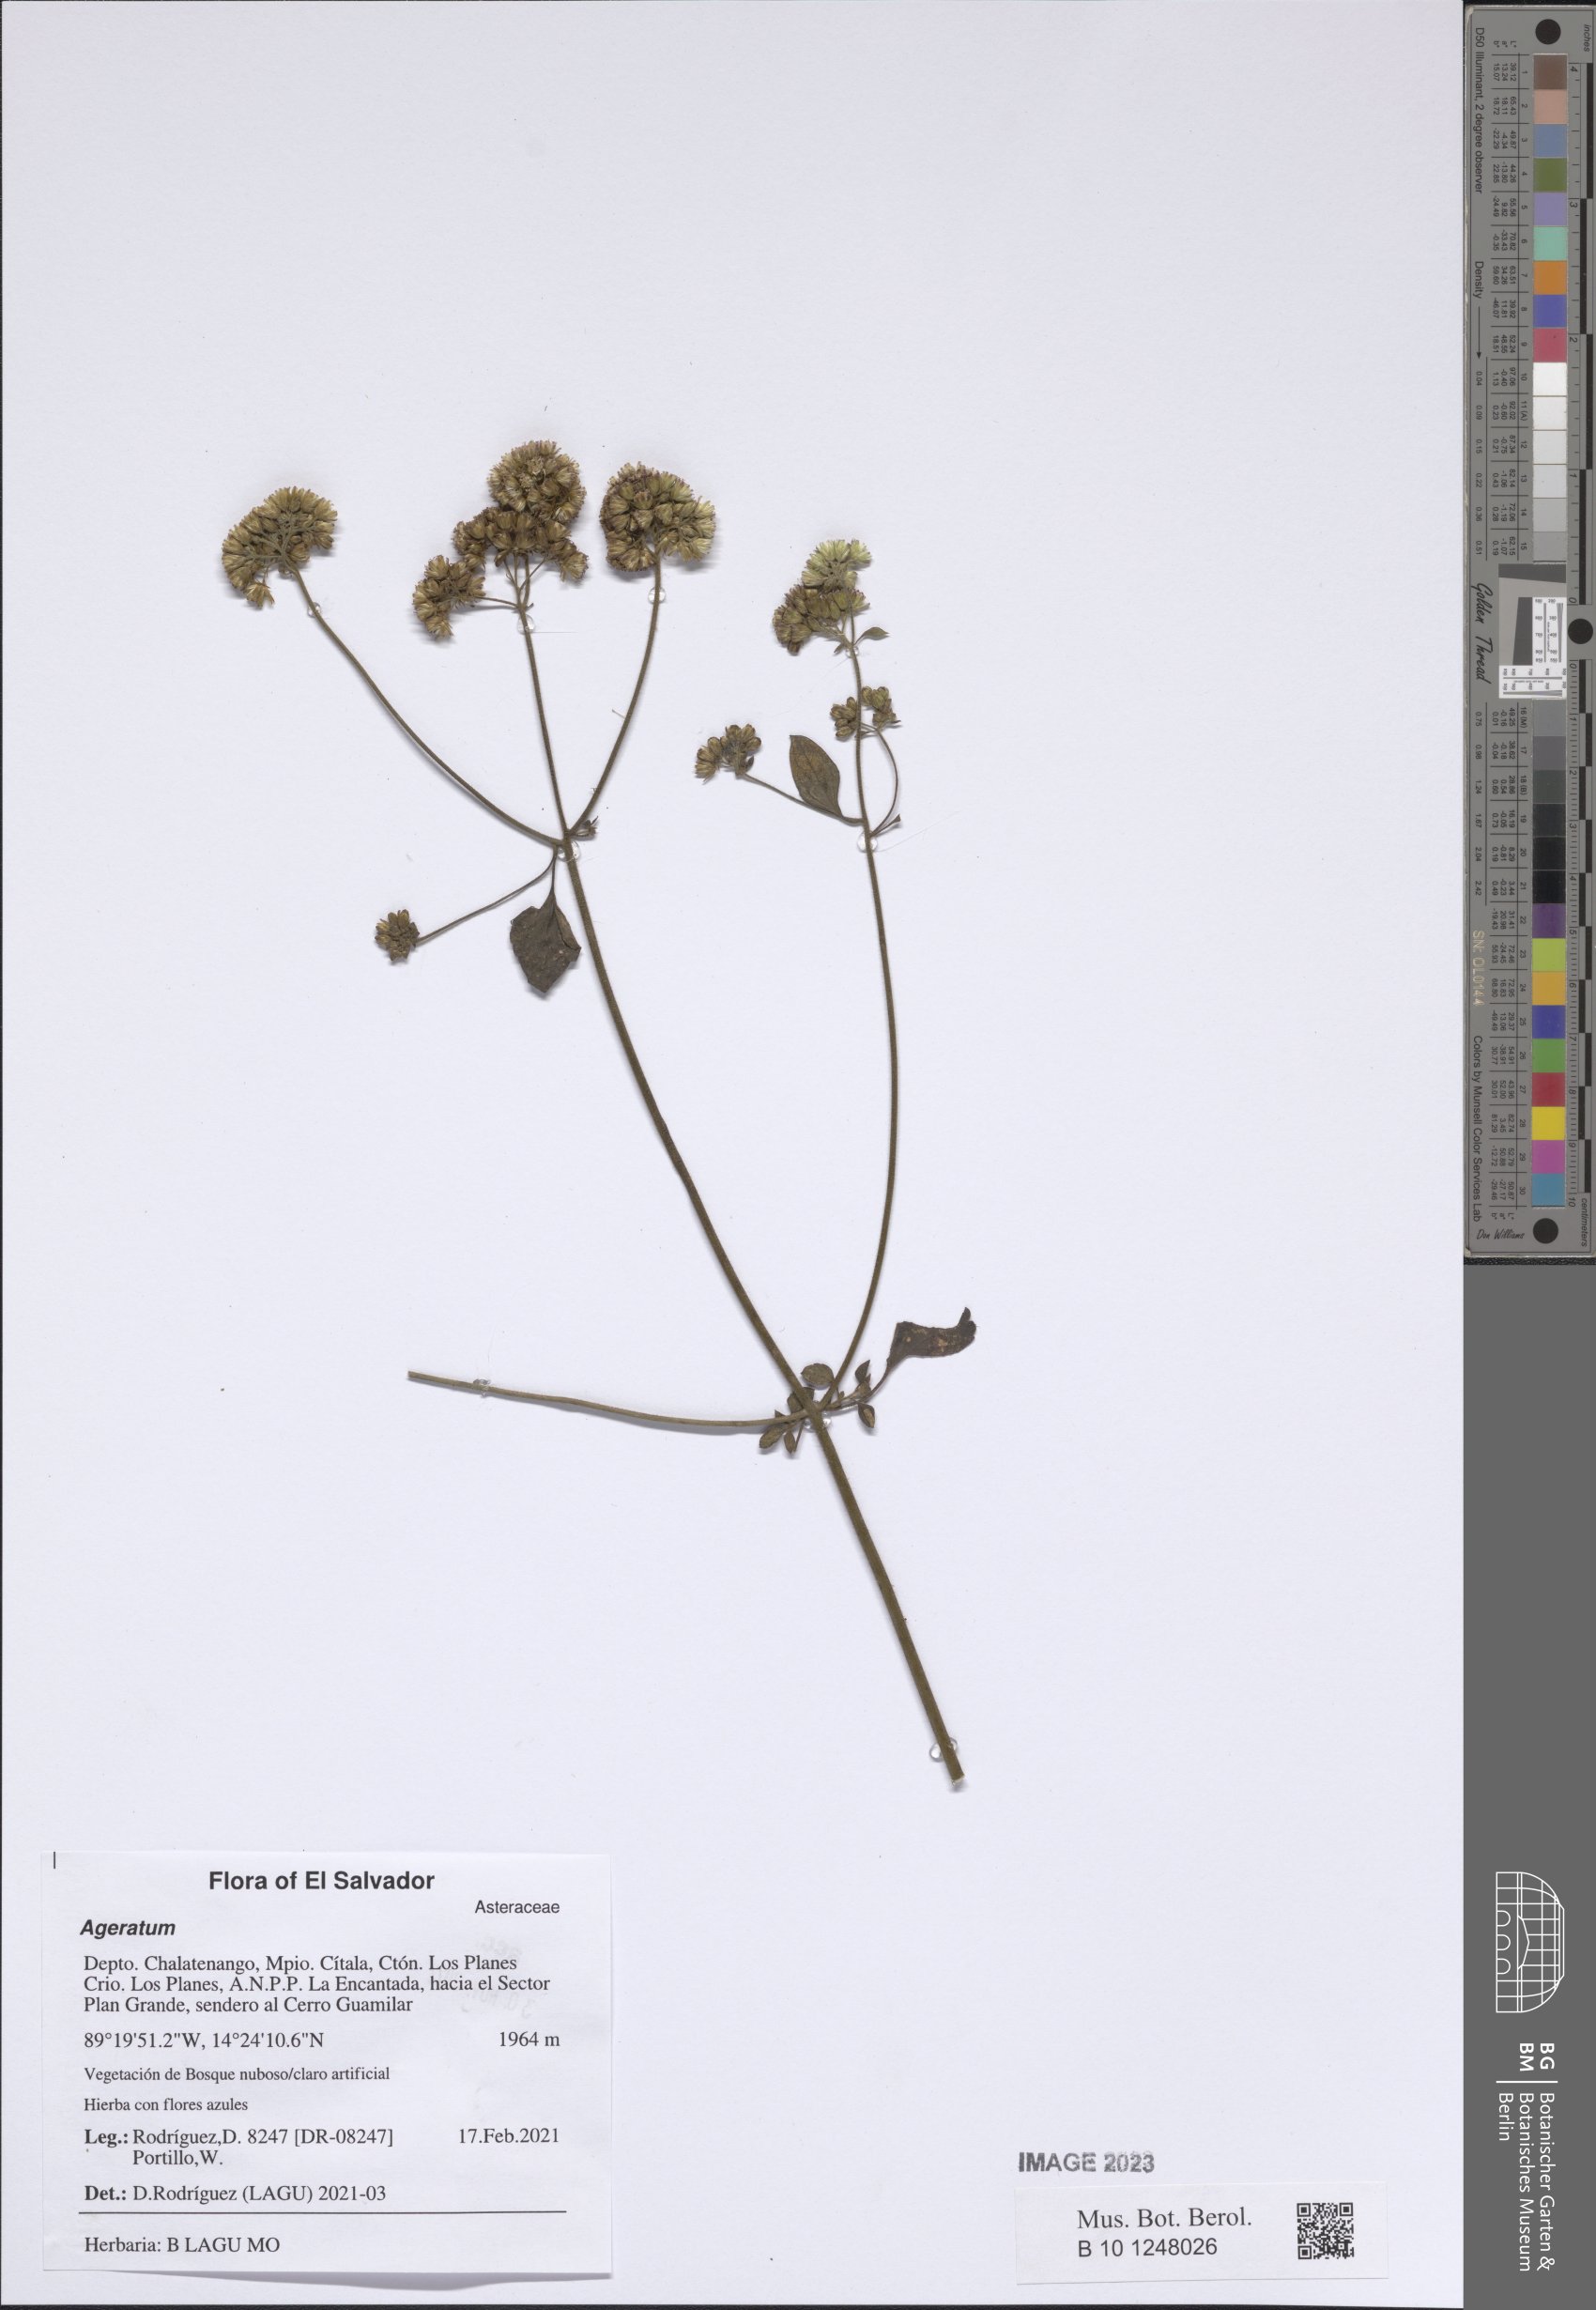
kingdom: Plantae
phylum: Tracheophyta
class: Magnoliopsida
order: Asterales
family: Asteraceae
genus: Ageratum
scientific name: Ageratum
